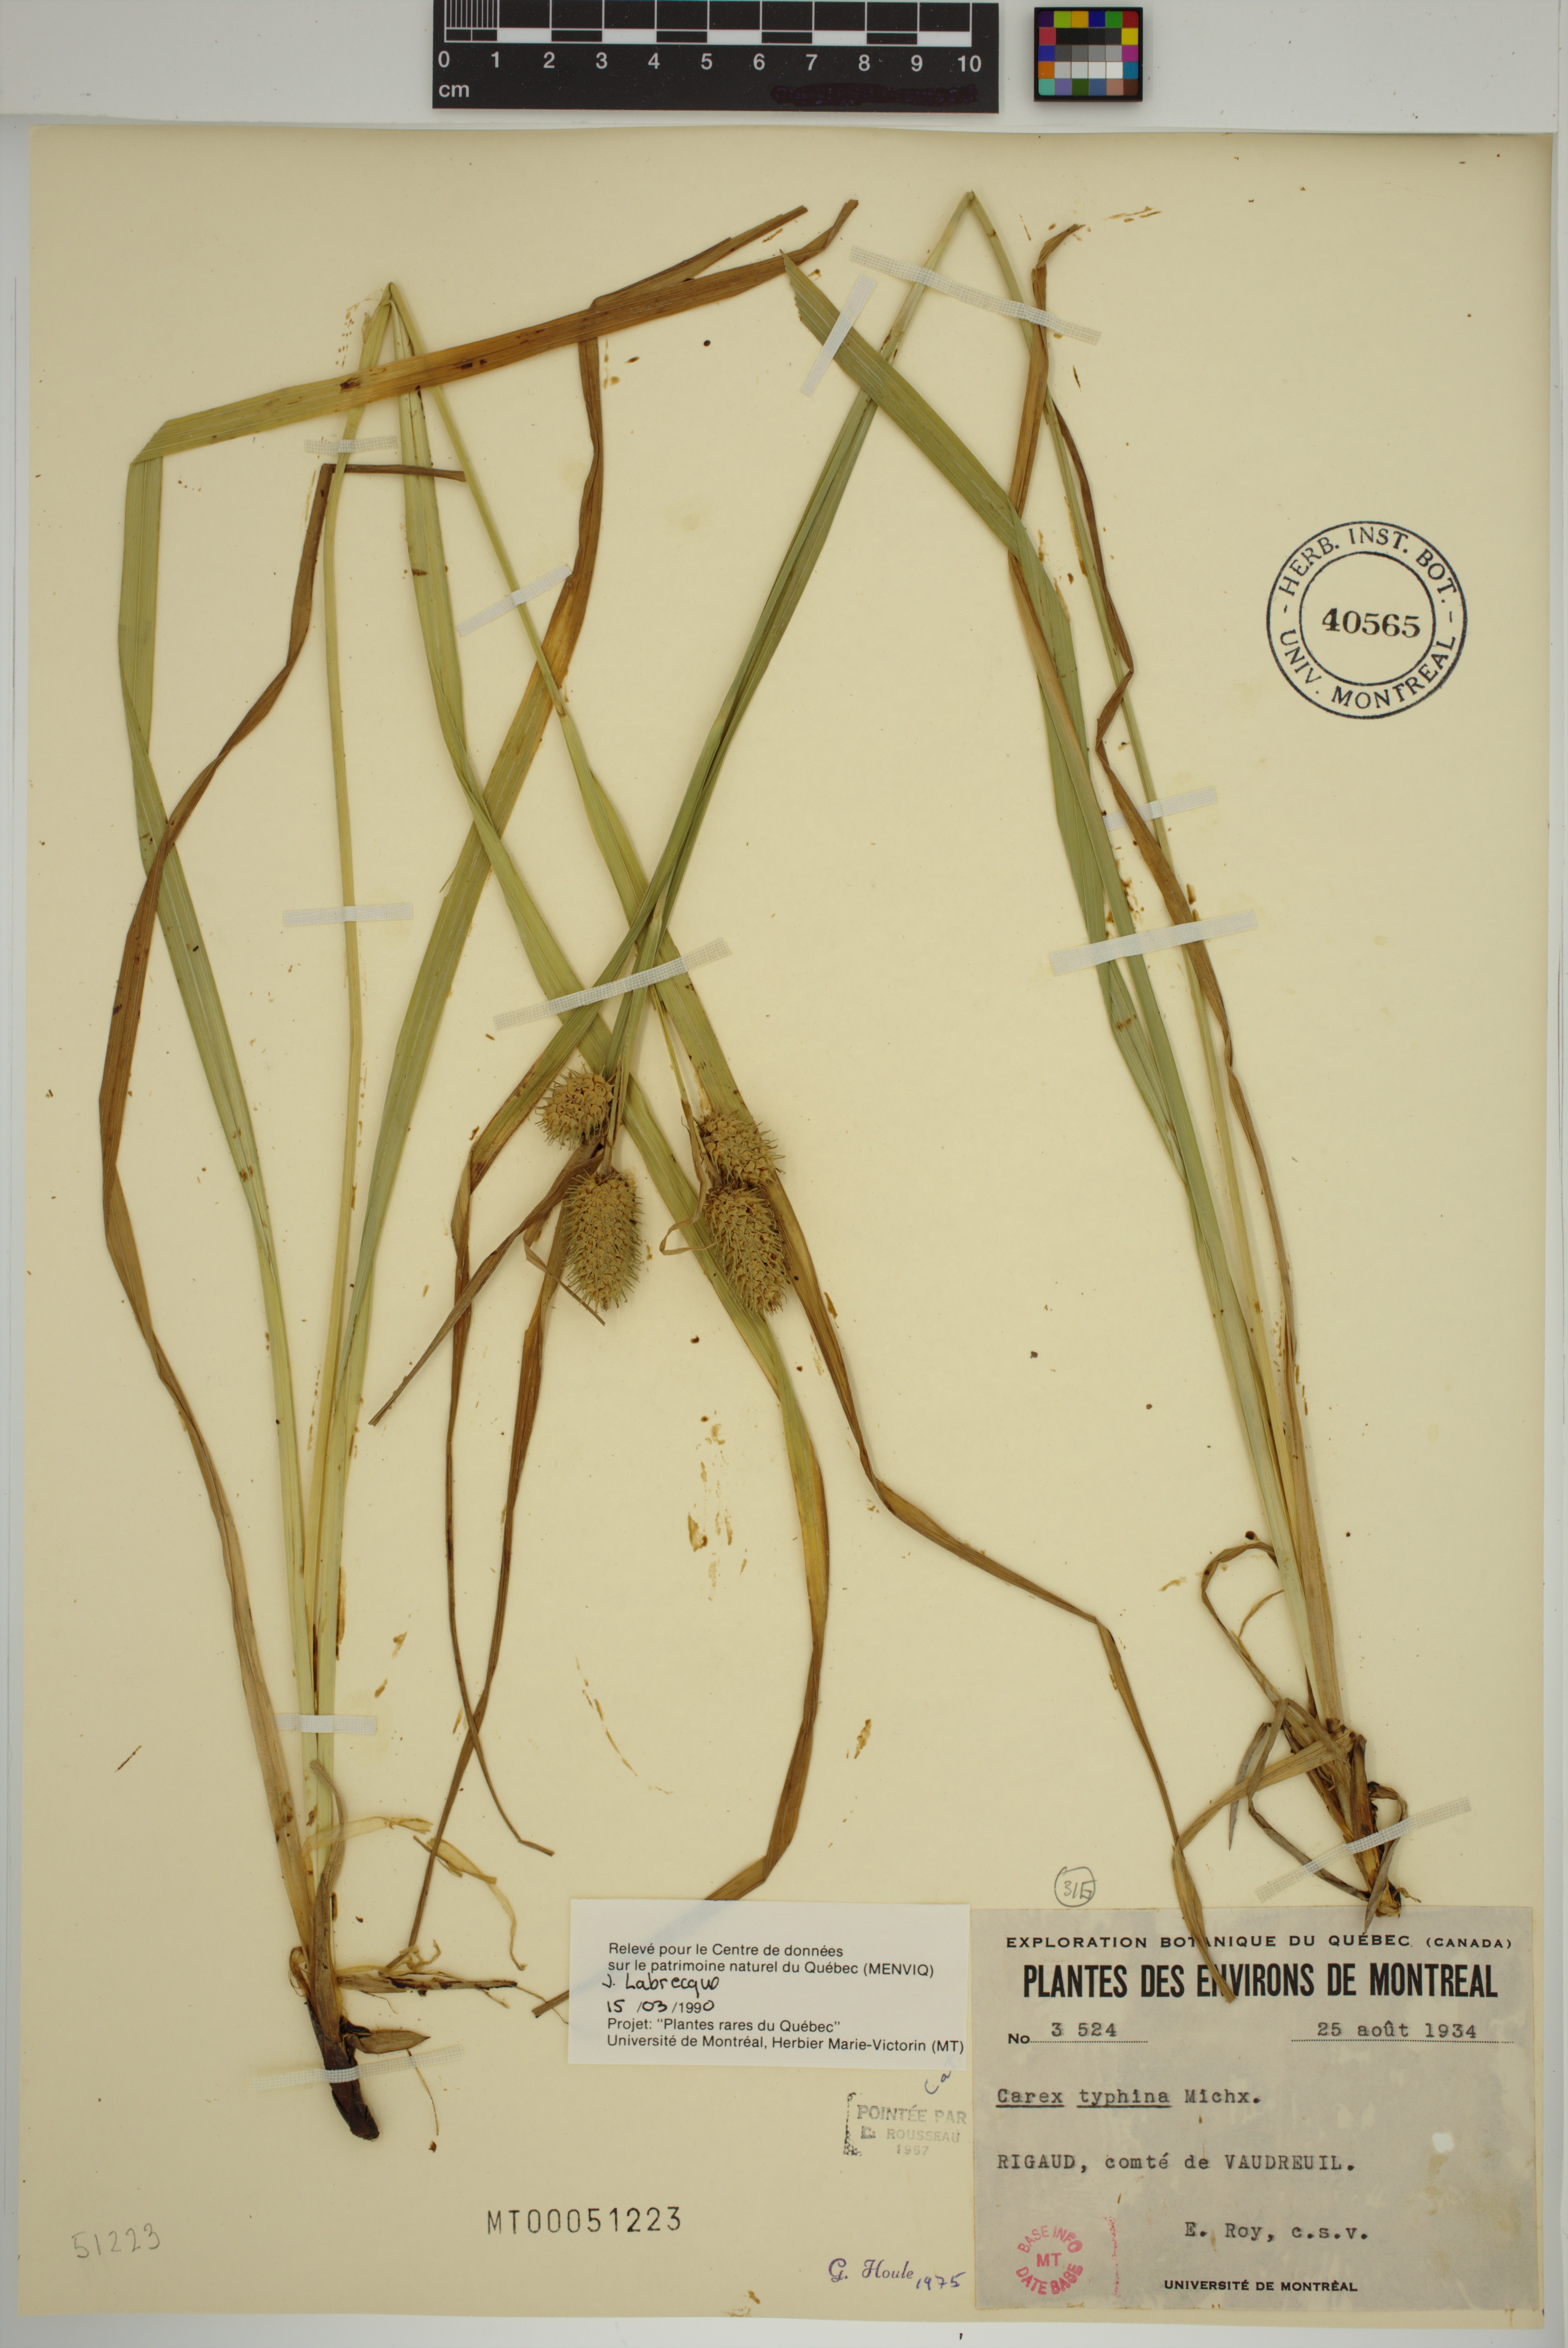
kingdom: Plantae
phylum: Tracheophyta
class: Liliopsida
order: Poales
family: Cyperaceae
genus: Carex
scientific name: Carex typhina
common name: Cattail sedge
